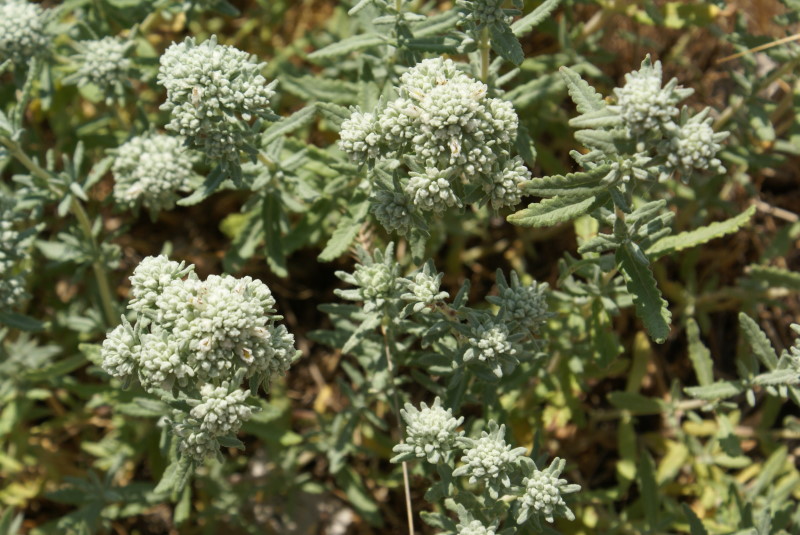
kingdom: Plantae
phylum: Tracheophyta
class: Magnoliopsida
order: Lamiales
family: Lamiaceae
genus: Teucrium
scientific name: Teucrium polium
